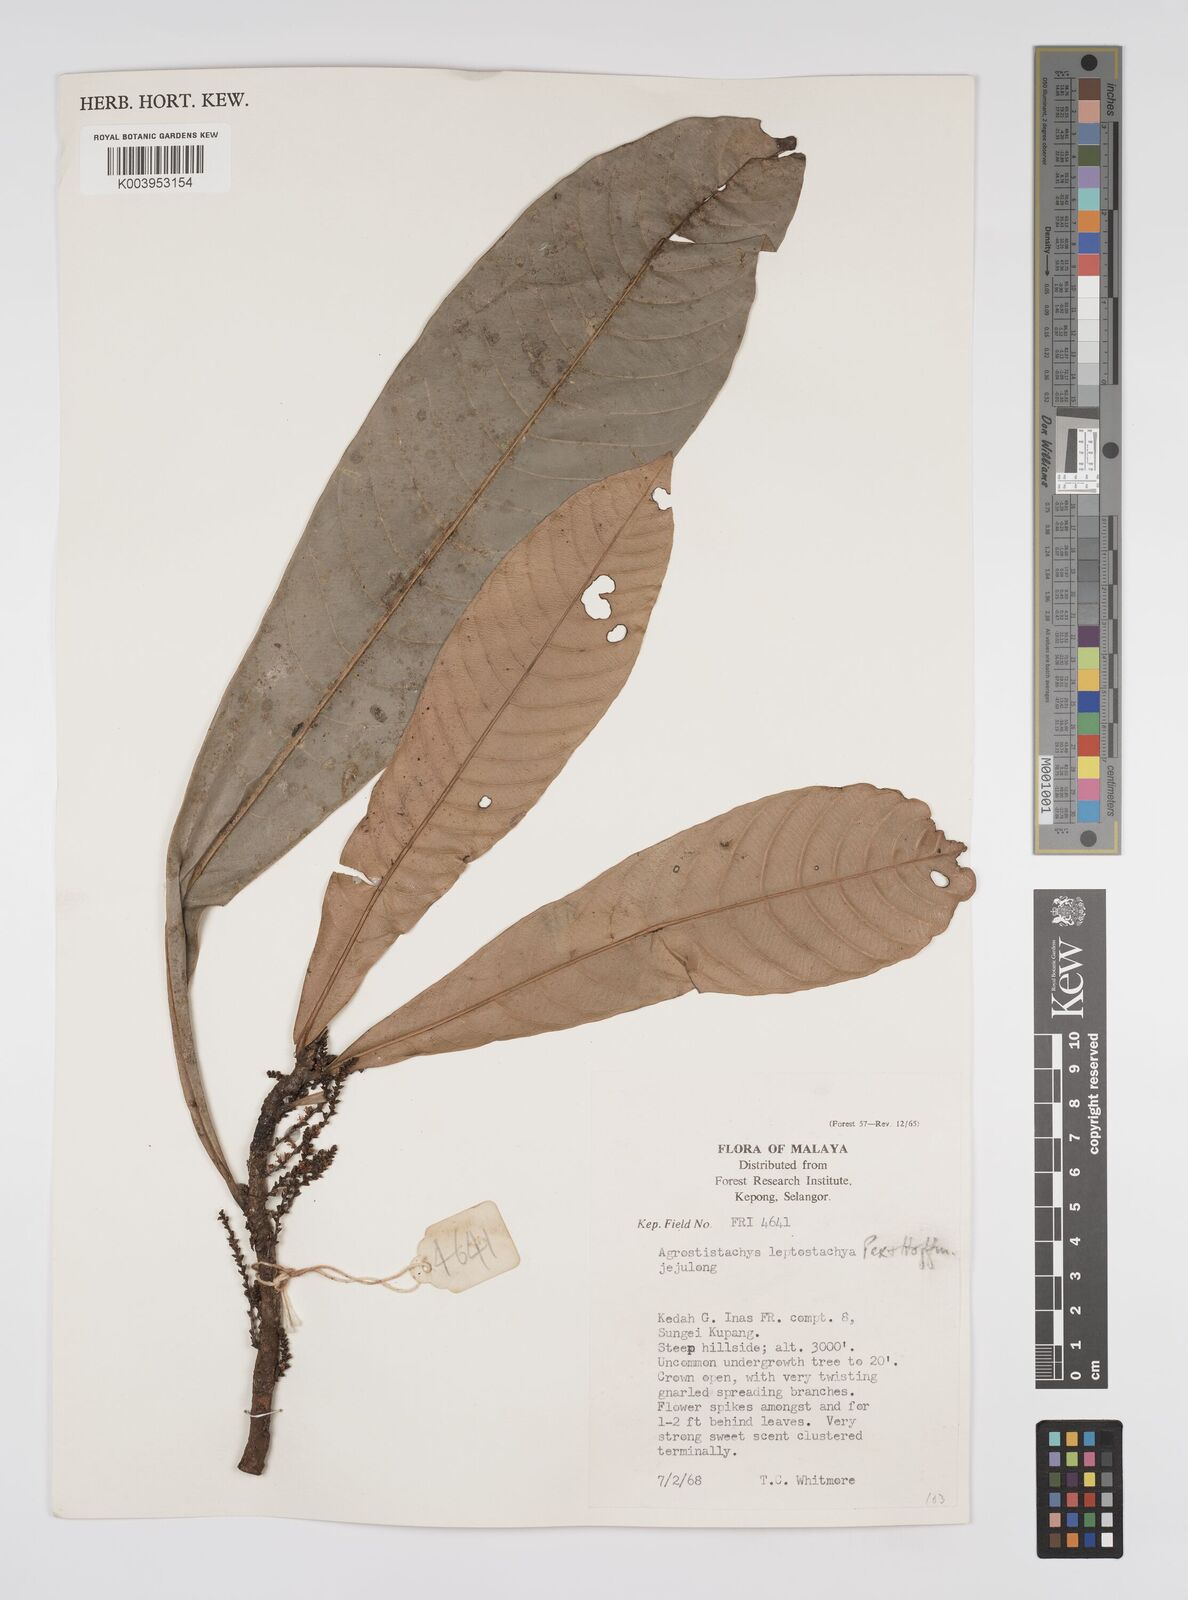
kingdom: Plantae
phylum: Tracheophyta
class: Magnoliopsida
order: Malpighiales
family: Euphorbiaceae
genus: Agrostistachys
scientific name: Agrostistachys borneensis
